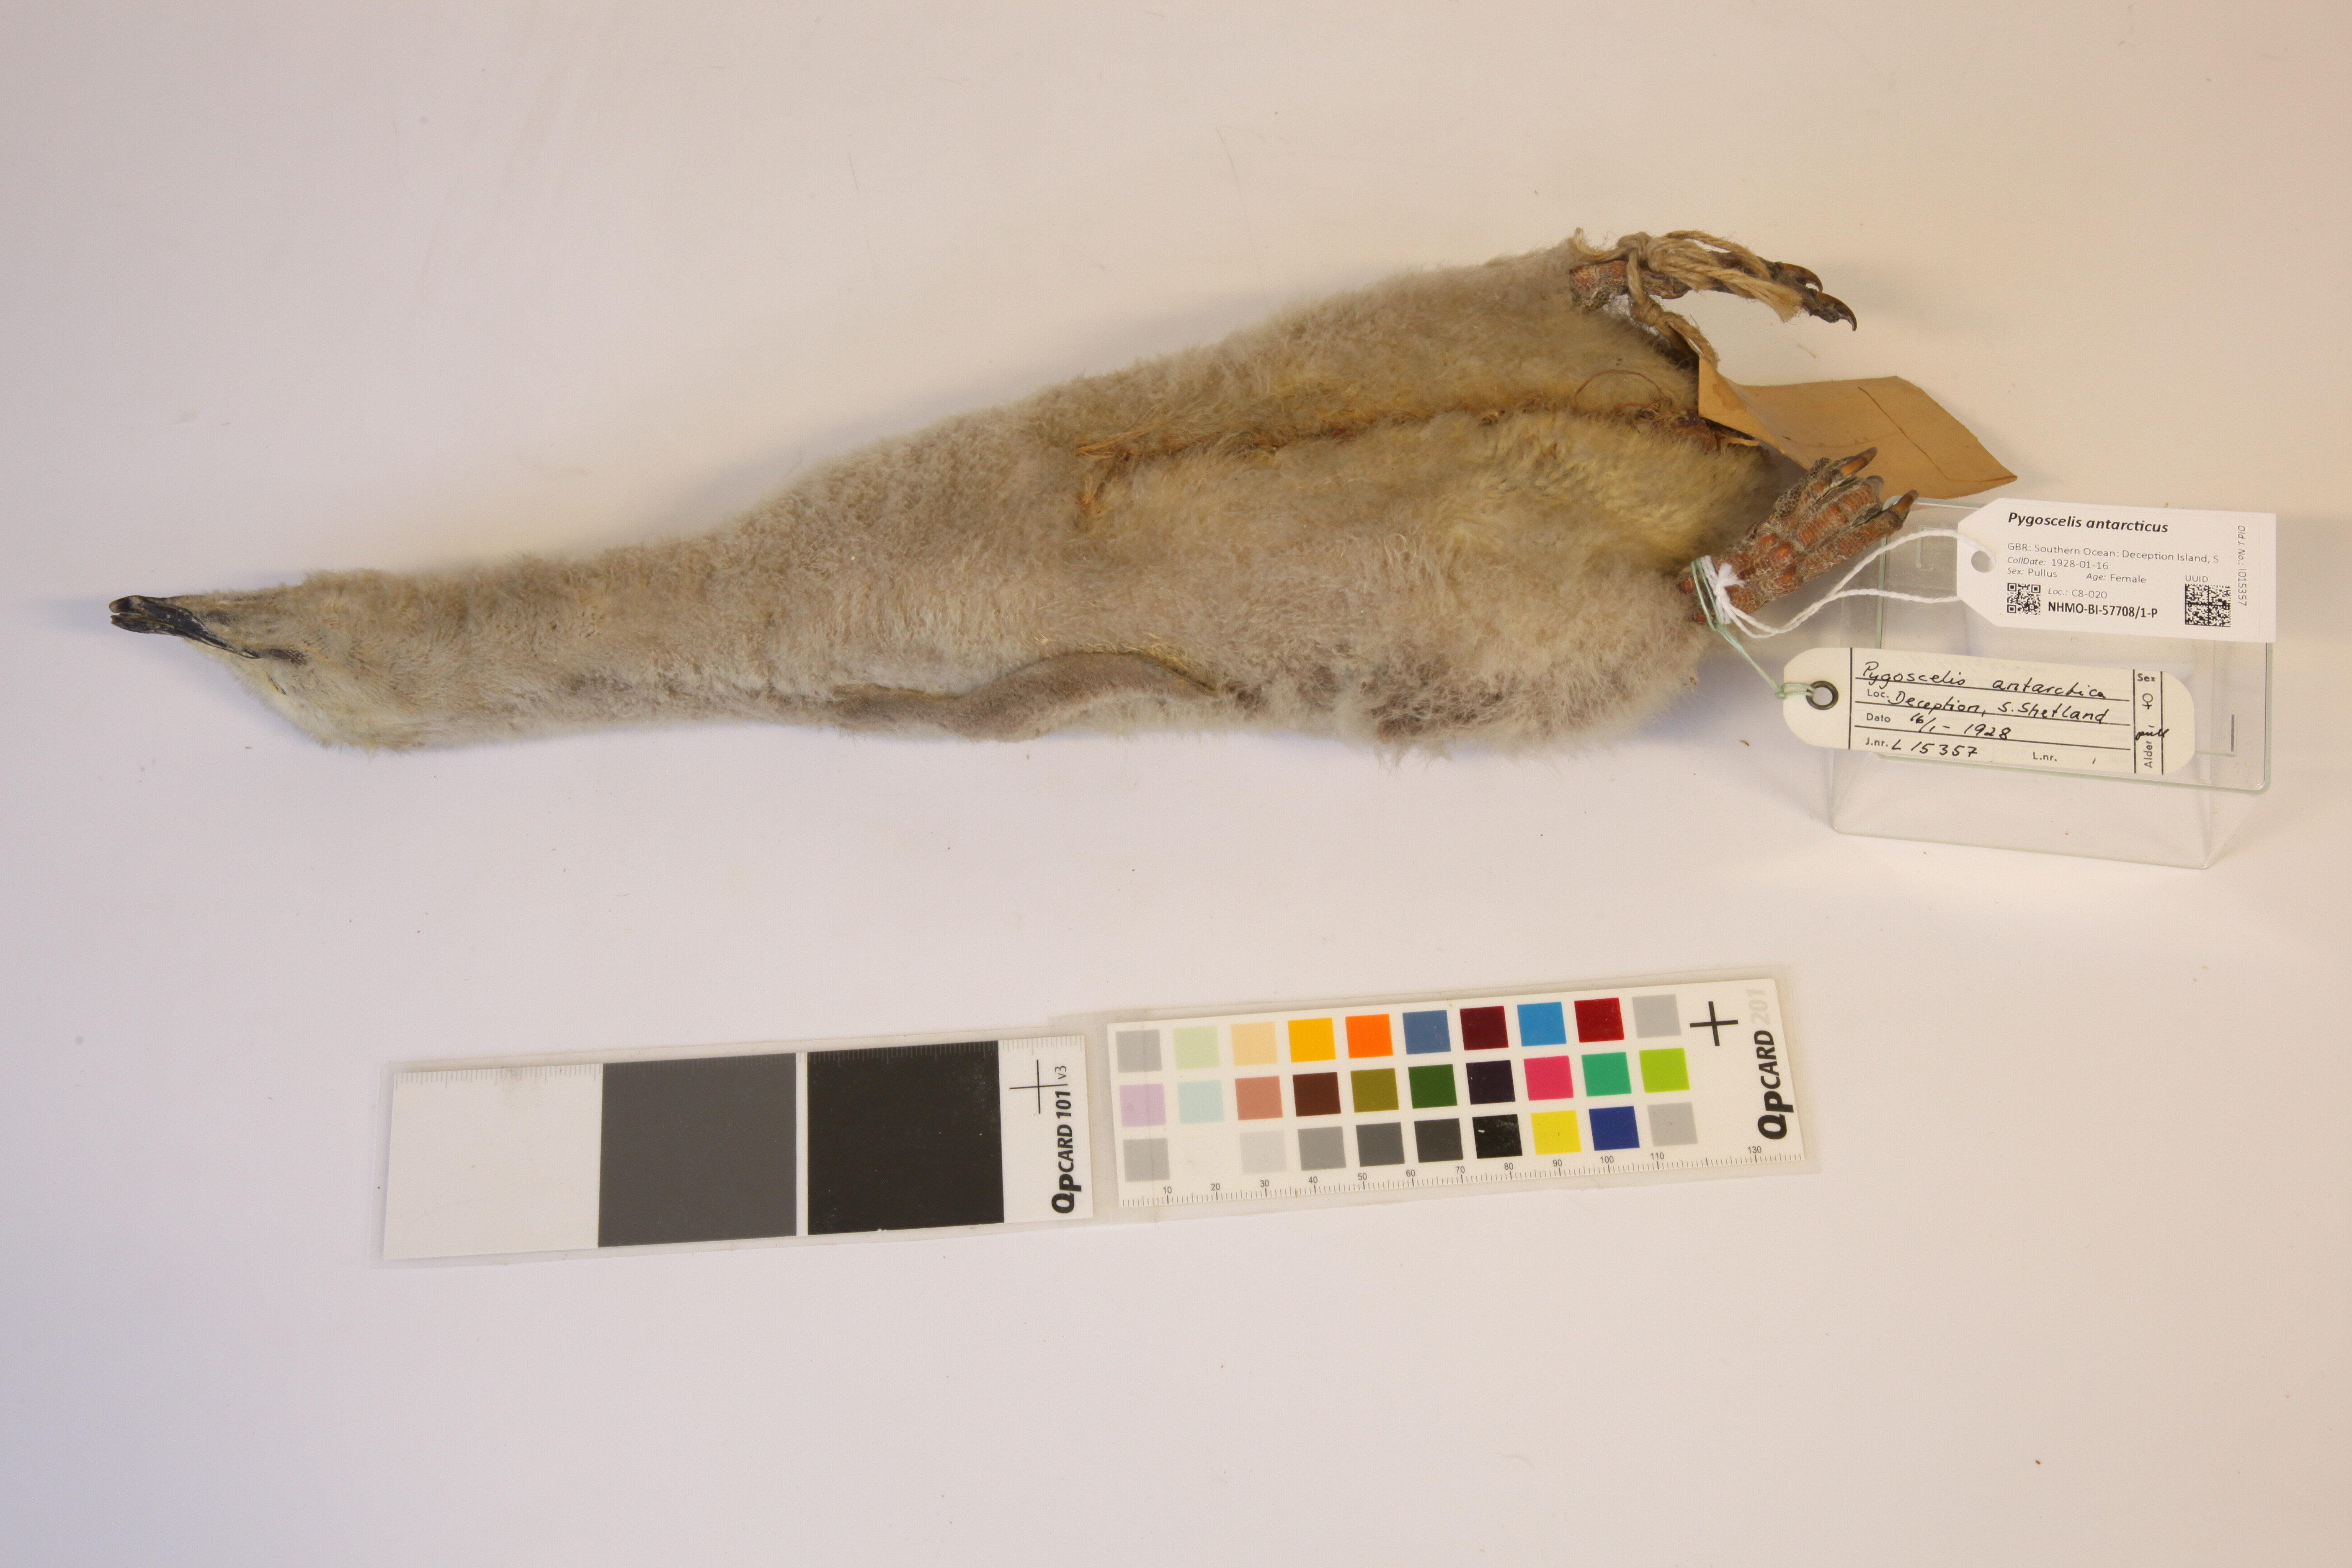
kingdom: Animalia
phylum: Chordata
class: Aves
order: Sphenisciformes
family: Spheniscidae
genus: Pygoscelis
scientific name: Pygoscelis antarcticus
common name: Chinstrap penguin
